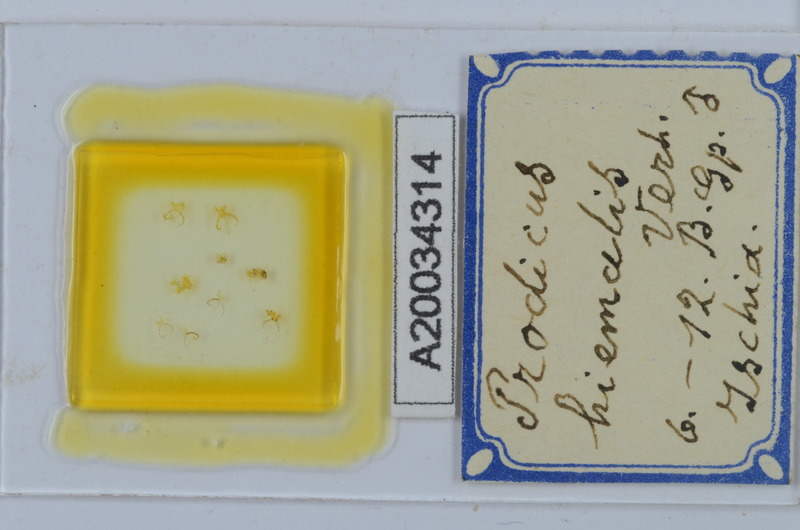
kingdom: Animalia
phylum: Arthropoda
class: Diplopoda
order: Chordeumatida
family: Anthroleucosomatidae
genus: Anamastigona
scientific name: Anamastigona hispidula
